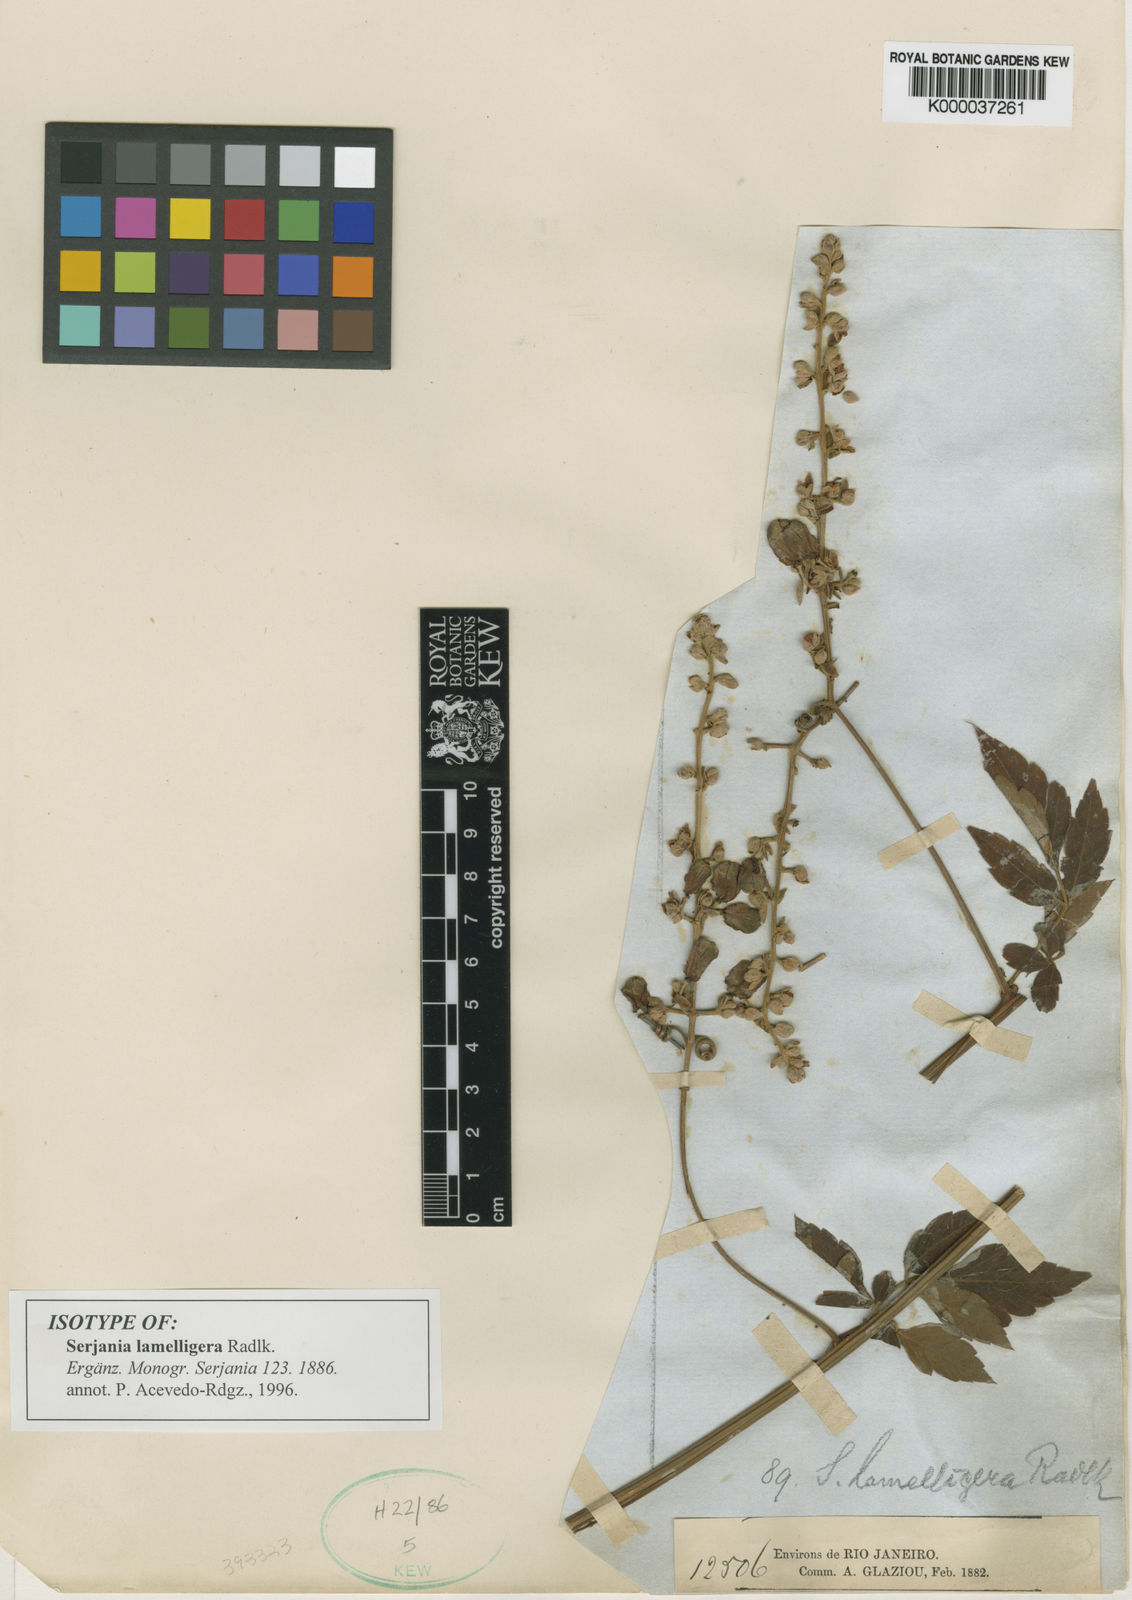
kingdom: Plantae
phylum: Tracheophyta
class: Magnoliopsida
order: Sapindales
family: Sapindaceae
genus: Serjania
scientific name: Serjania lamelligera
